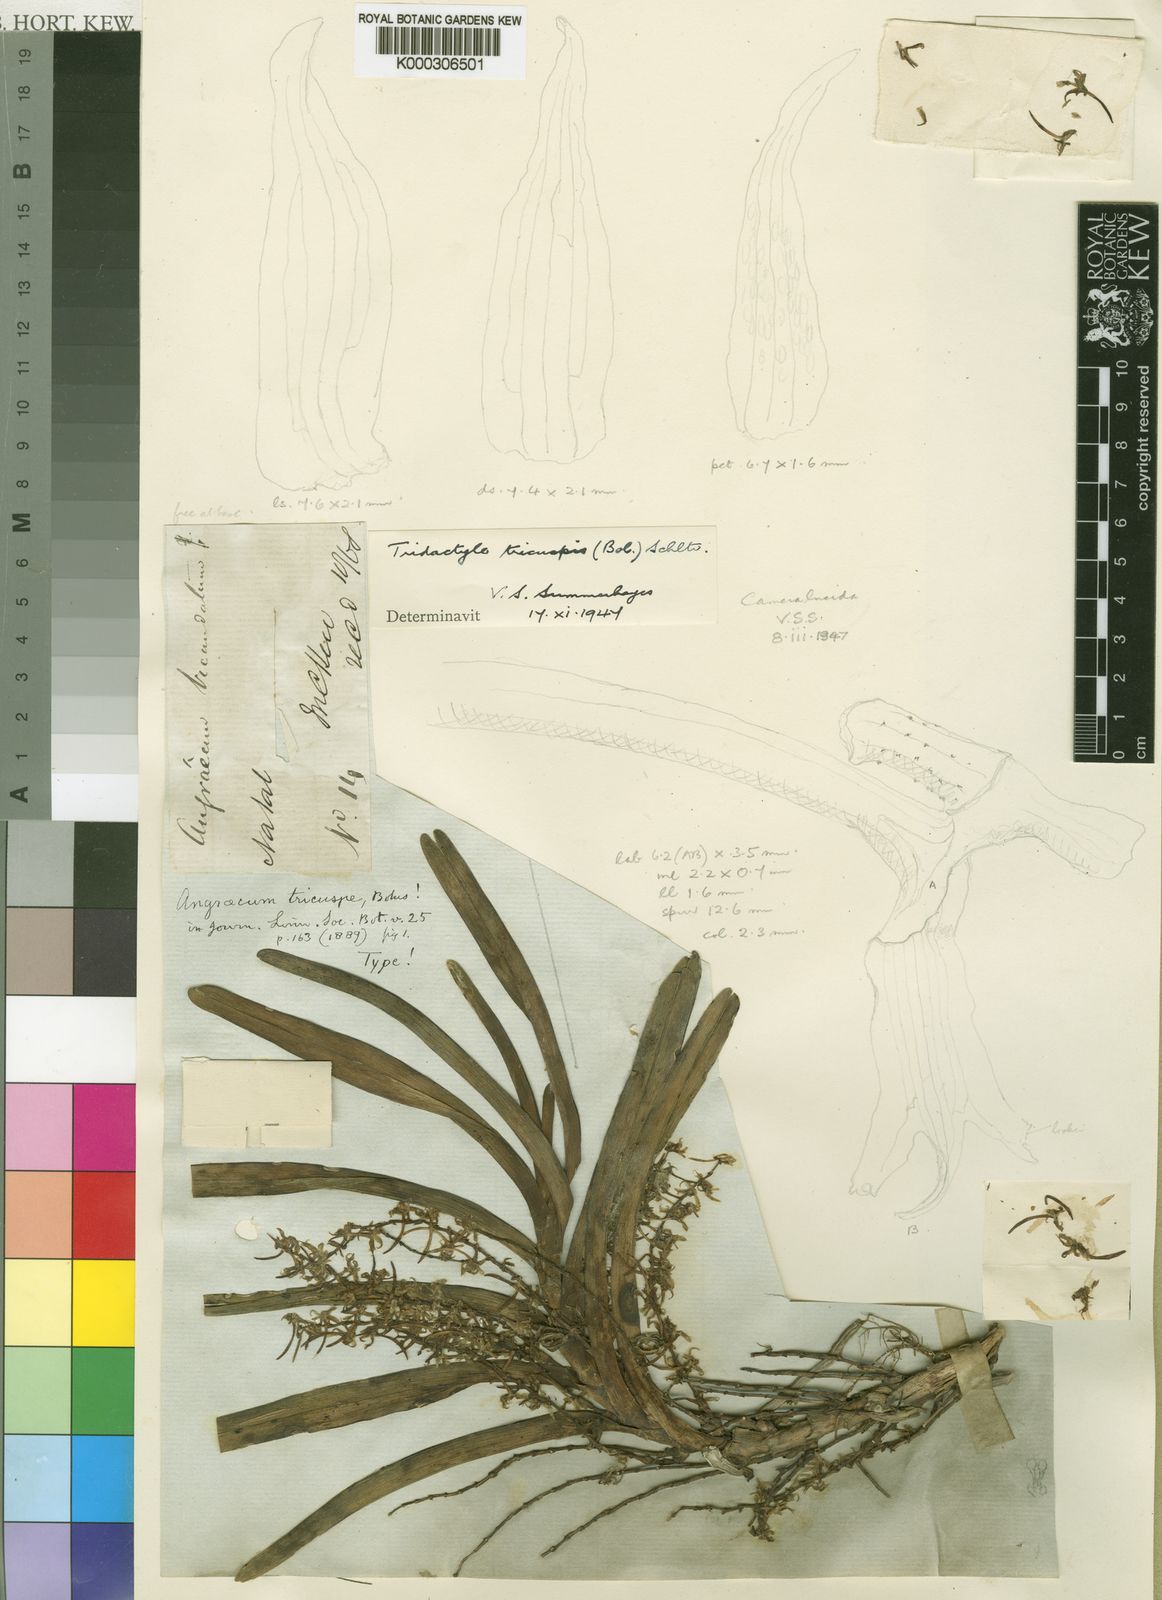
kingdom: Plantae
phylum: Tracheophyta
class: Liliopsida
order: Asparagales
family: Orchidaceae
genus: Ypsilopus
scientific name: Ypsilopus tricuspis
